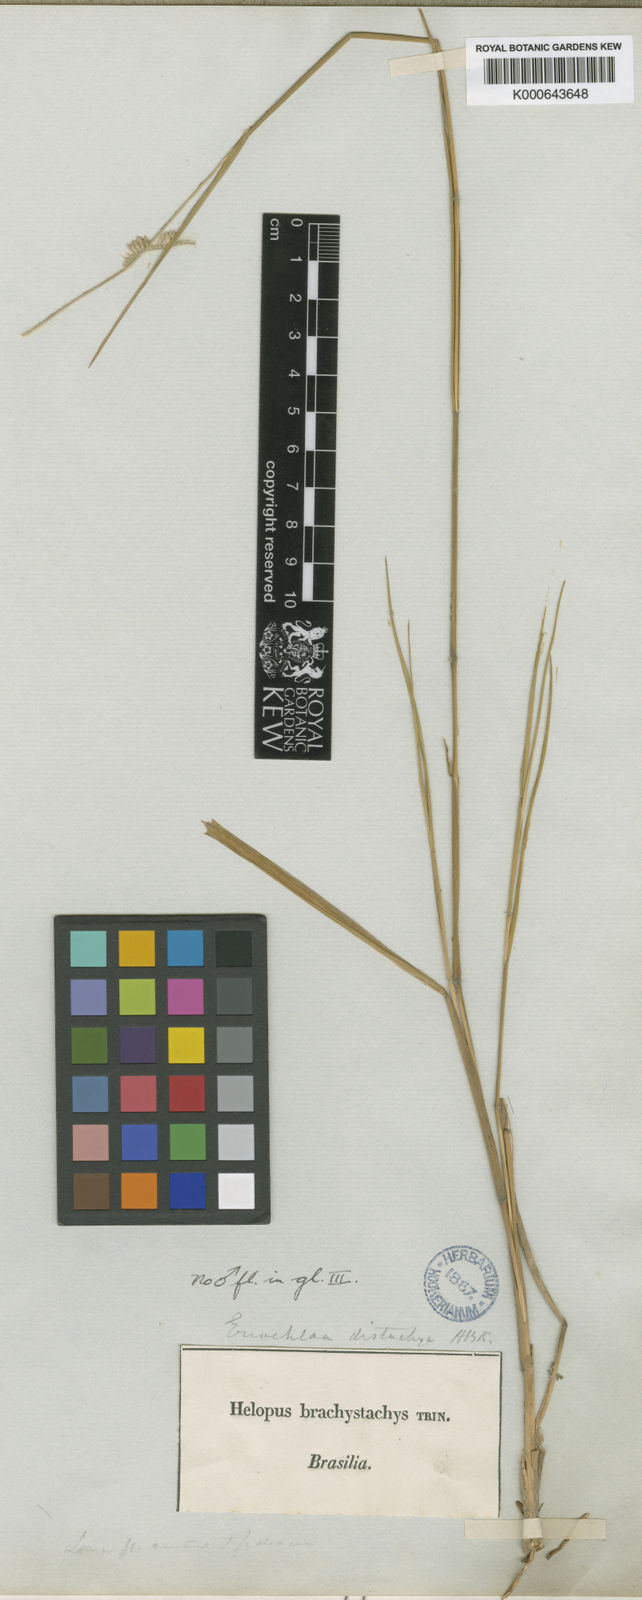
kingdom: Plantae
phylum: Tracheophyta
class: Liliopsida
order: Poales
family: Poaceae
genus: Eriochloa
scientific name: Eriochloa
